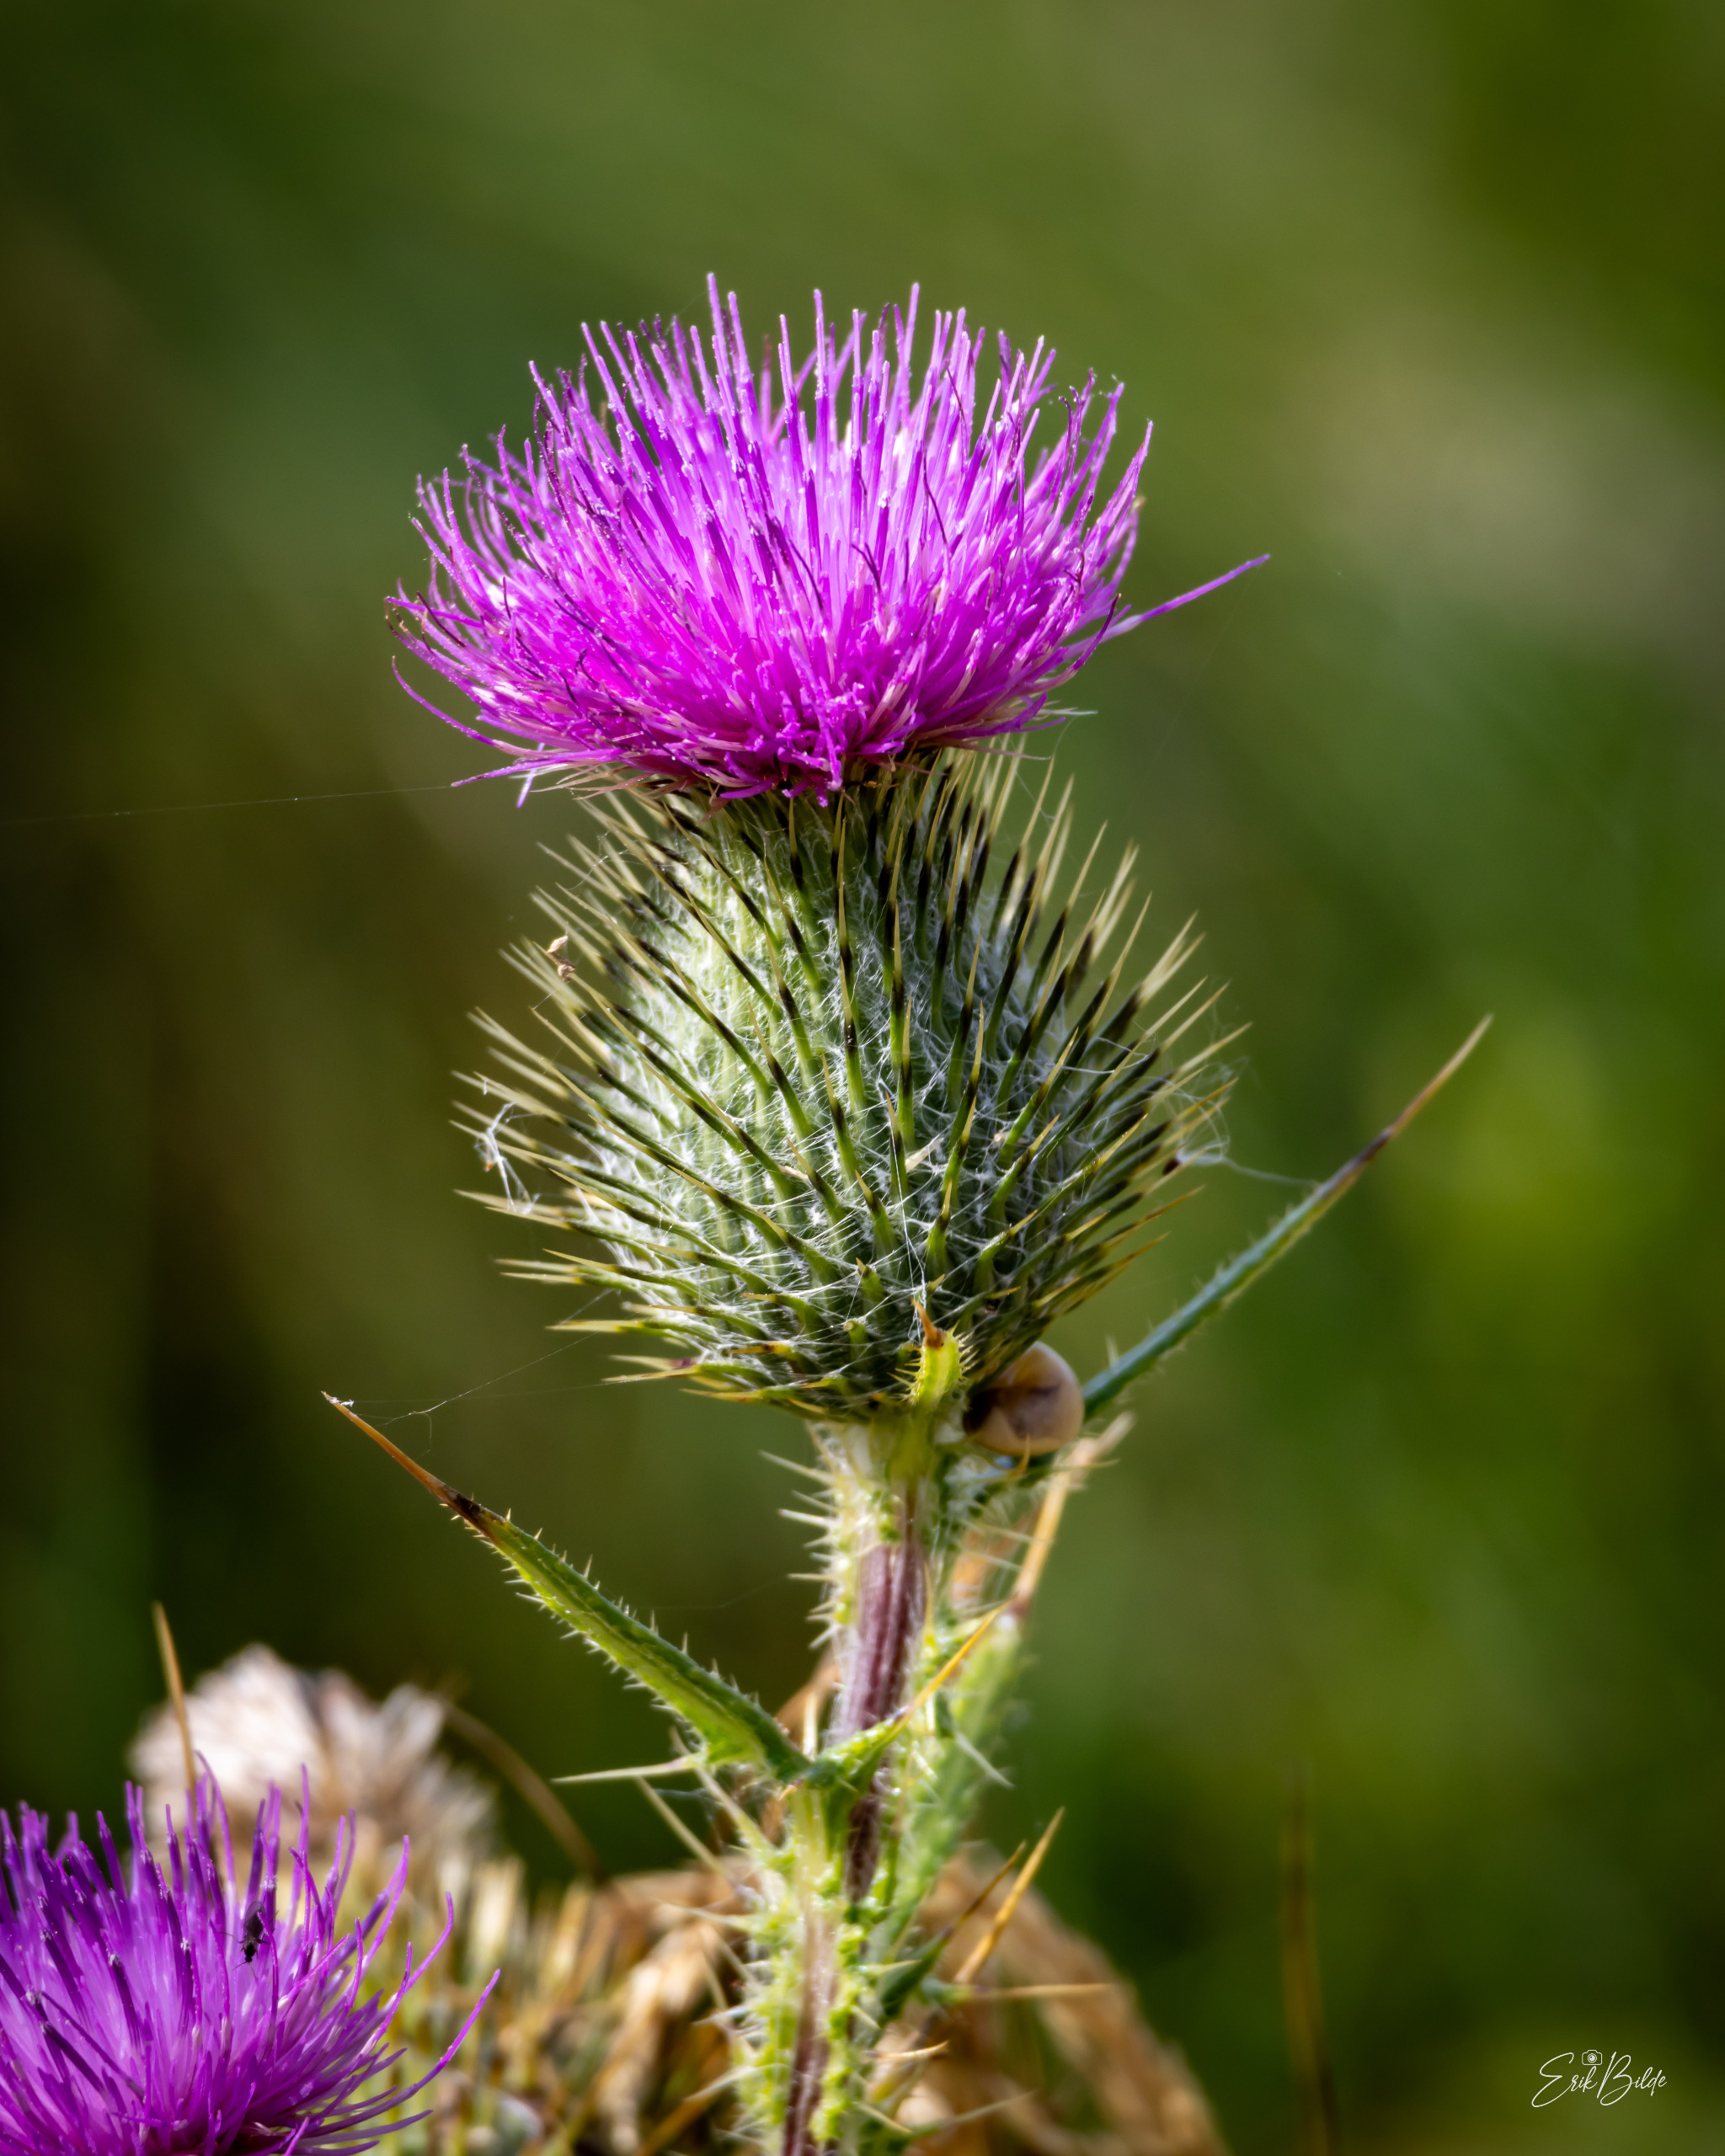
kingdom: Plantae
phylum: Tracheophyta
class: Magnoliopsida
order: Asterales
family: Asteraceae
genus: Cirsium
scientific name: Cirsium vulgare
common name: Horse-tidsel
